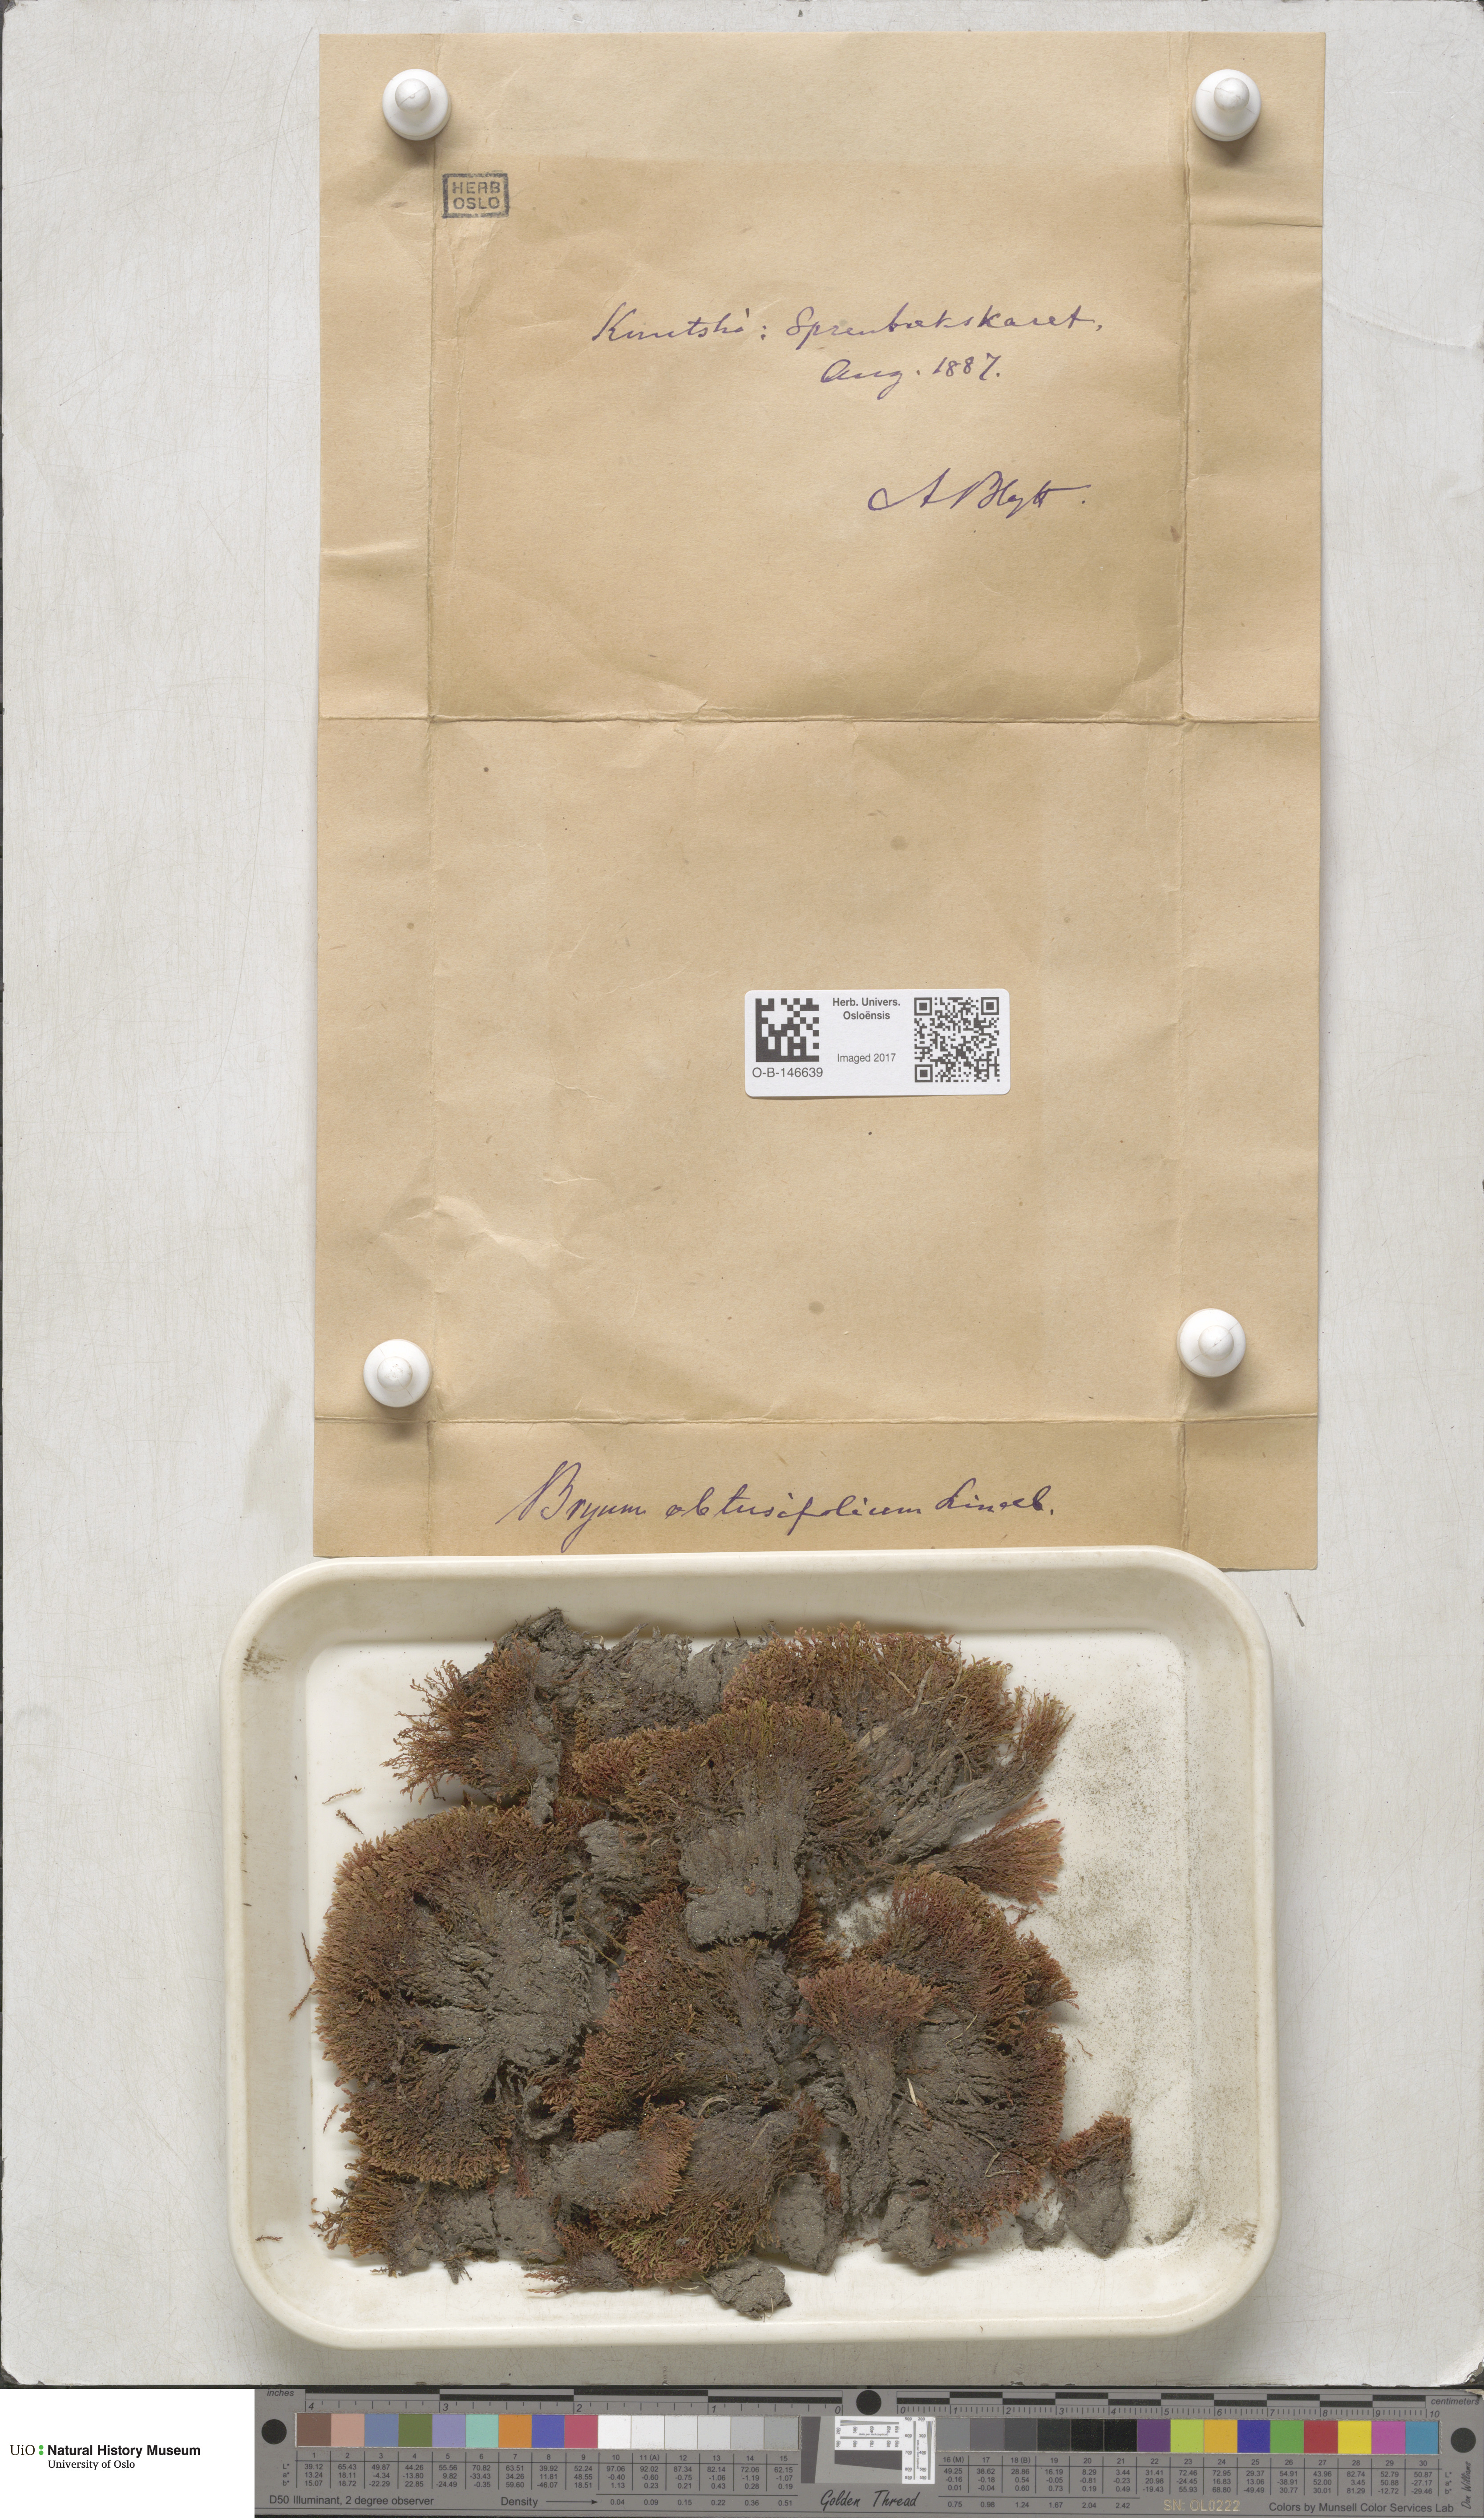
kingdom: Plantae
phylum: Bryophyta
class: Bryopsida
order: Bryales
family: Mniaceae
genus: Pohlia
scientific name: Pohlia obtusifolia
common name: Blunt nodding moss
